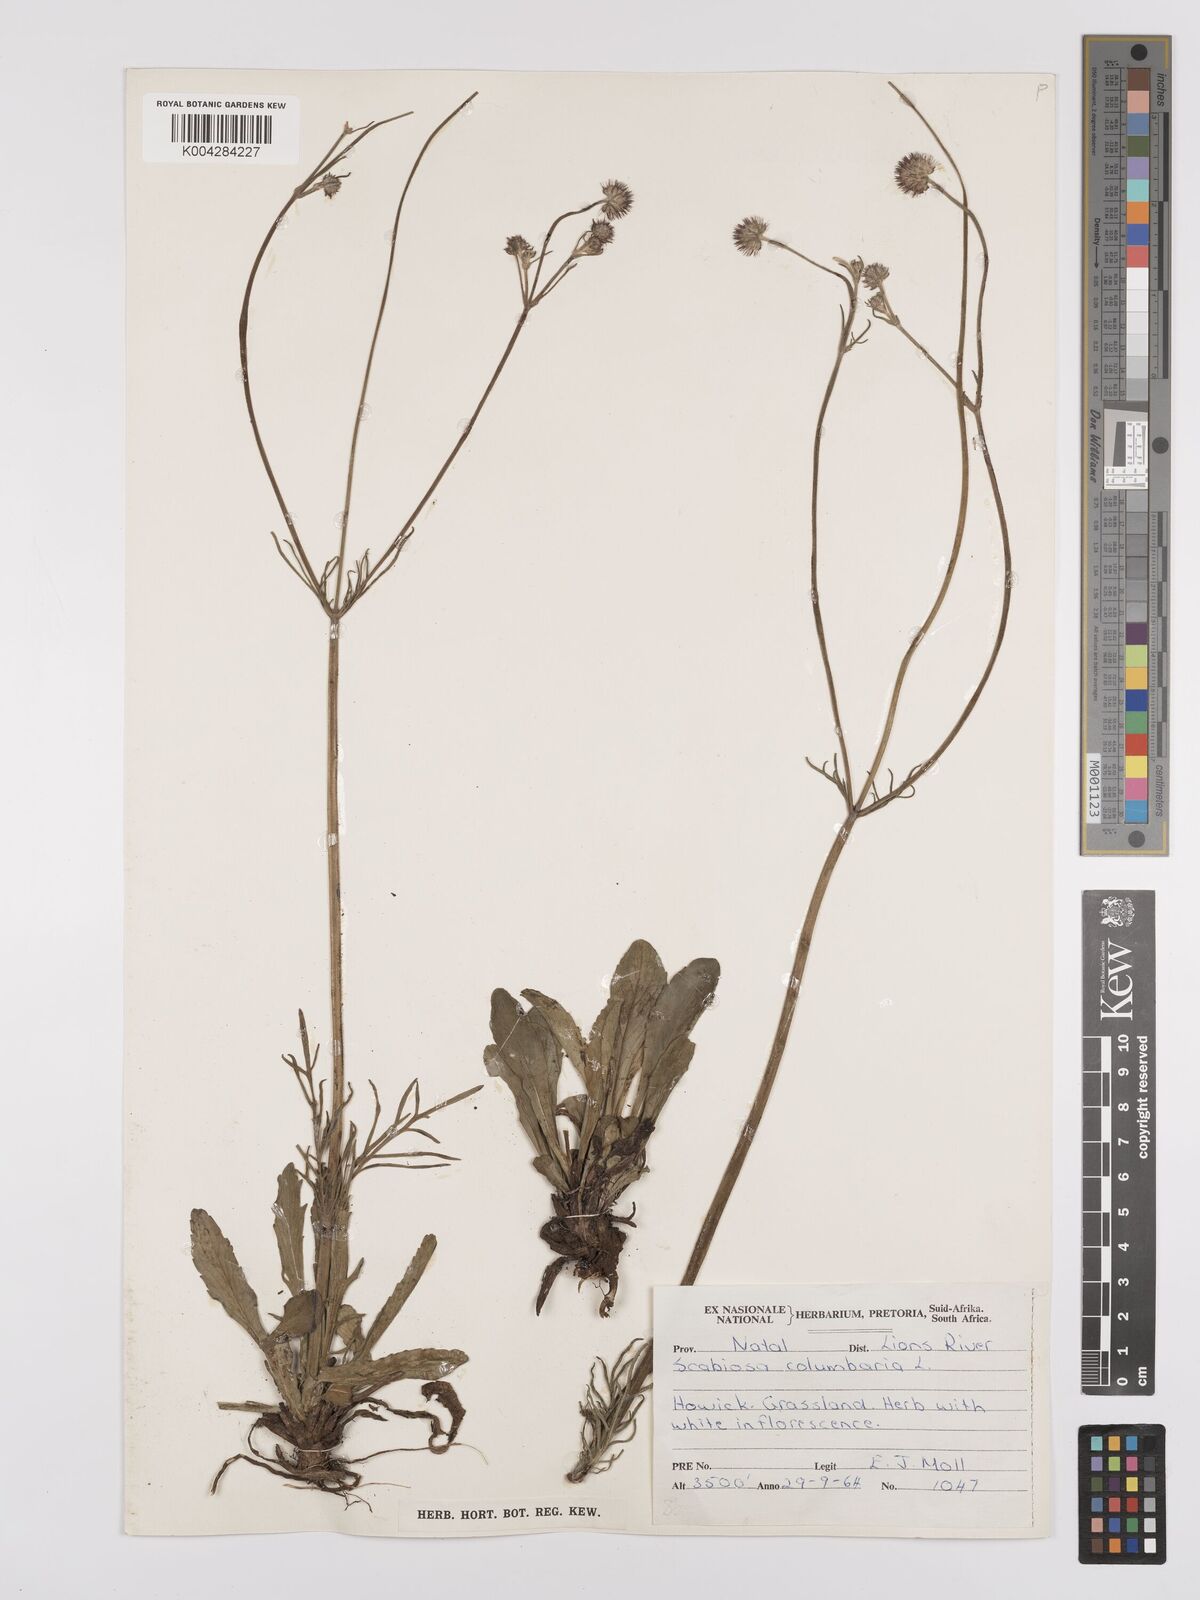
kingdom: Plantae
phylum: Tracheophyta
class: Magnoliopsida
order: Dipsacales
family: Caprifoliaceae
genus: Scabiosa
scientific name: Scabiosa columbaria
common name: Small scabious
